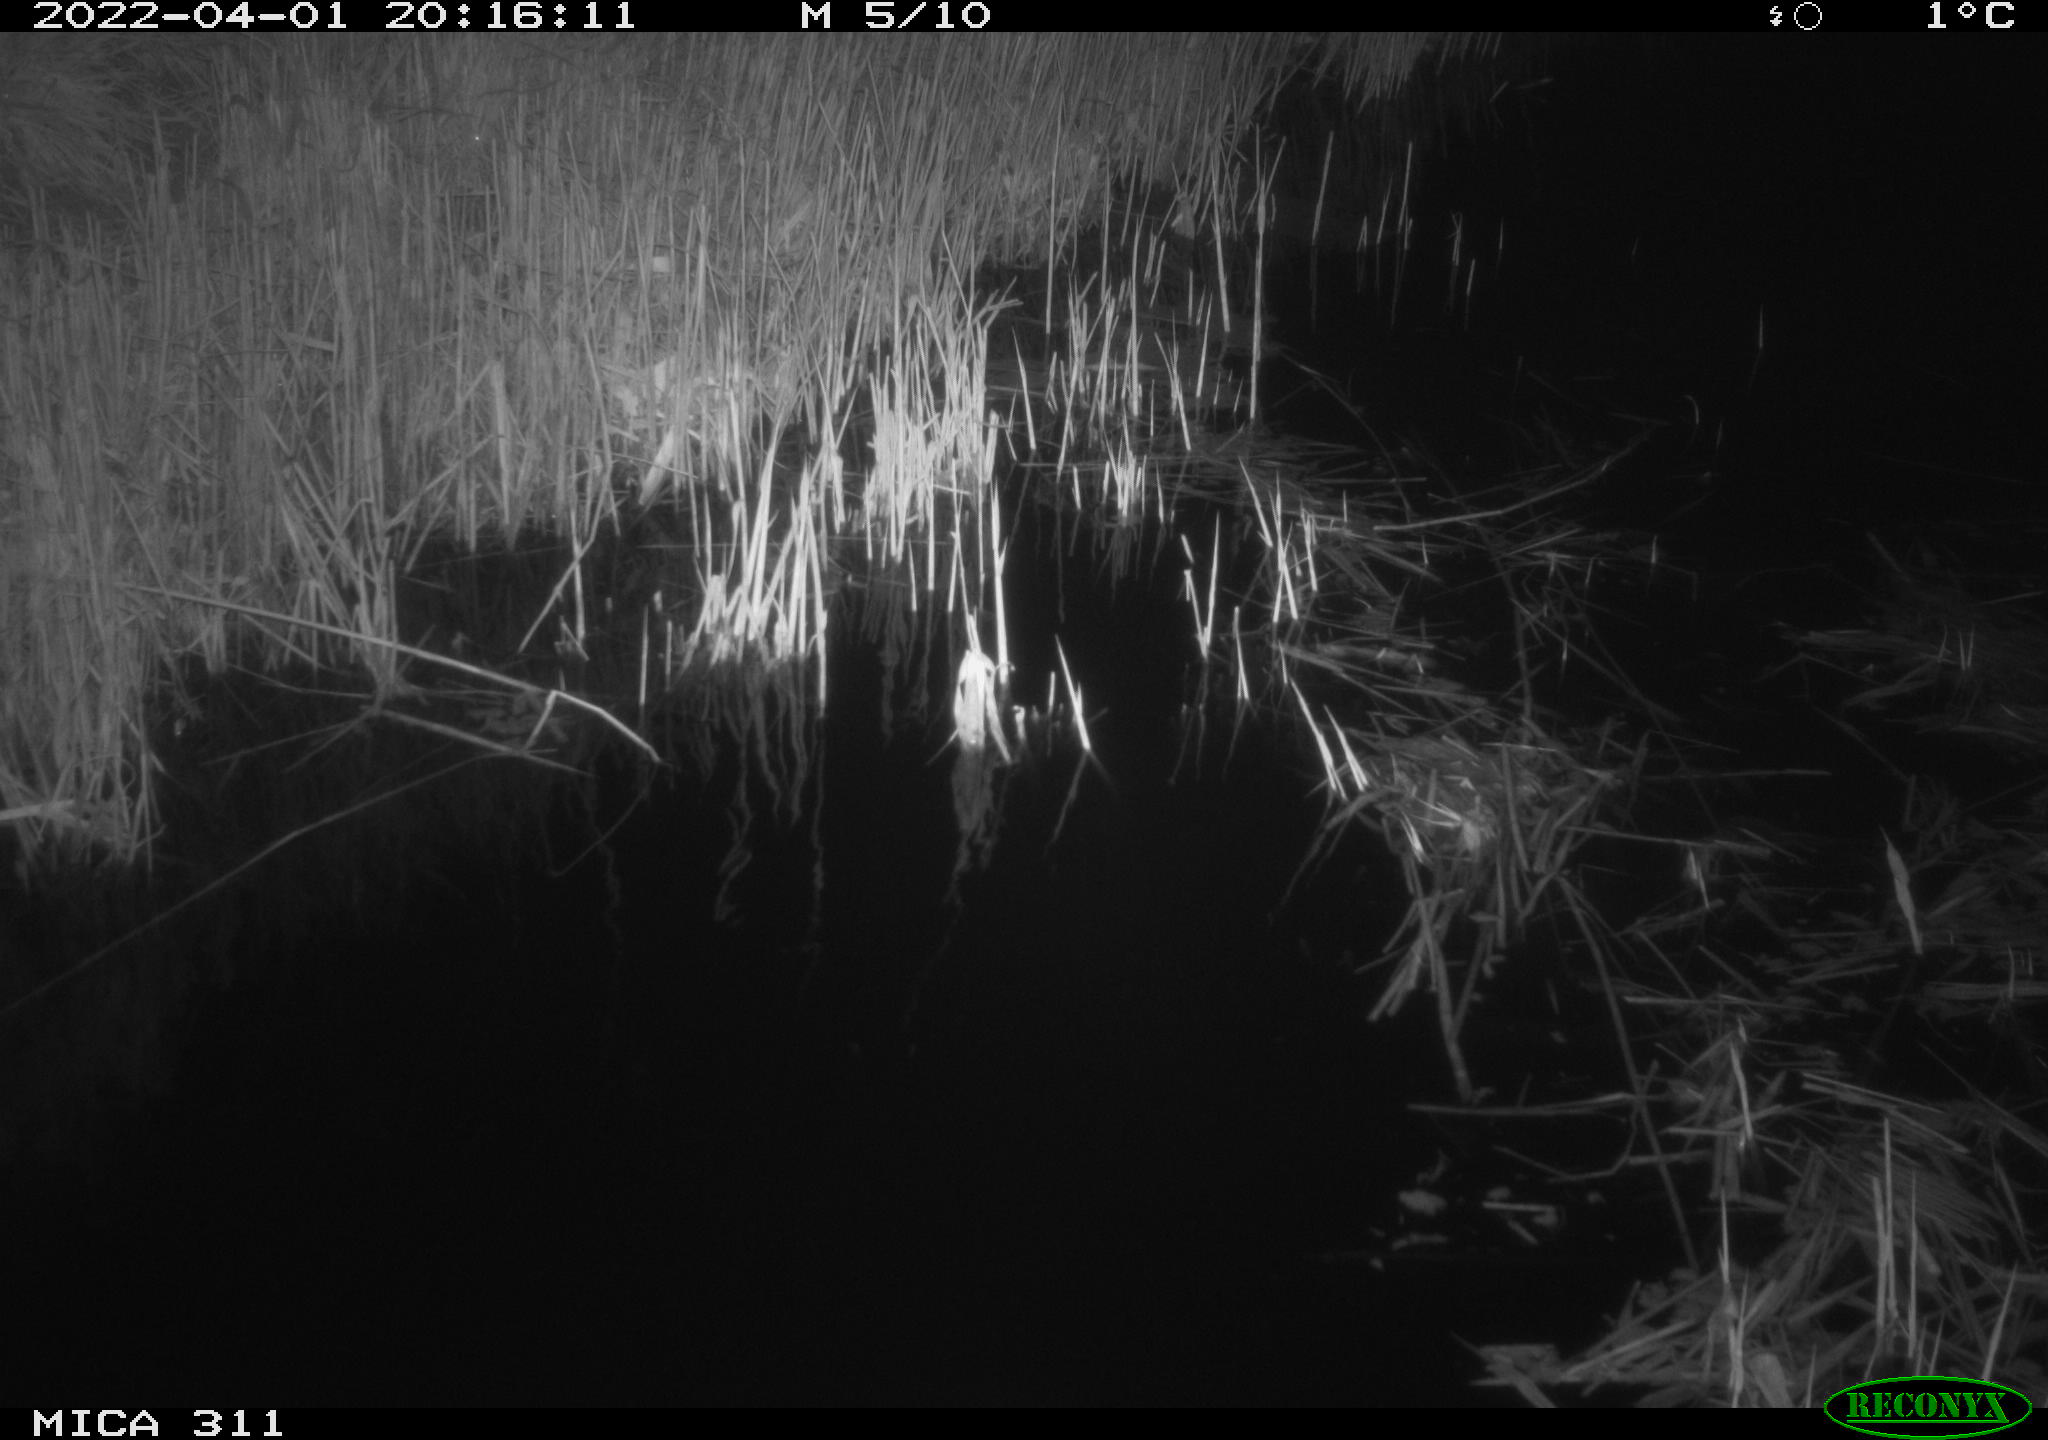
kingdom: Animalia
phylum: Chordata
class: Aves
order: Anseriformes
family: Anatidae
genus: Anas
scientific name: Anas platyrhynchos
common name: Mallard
